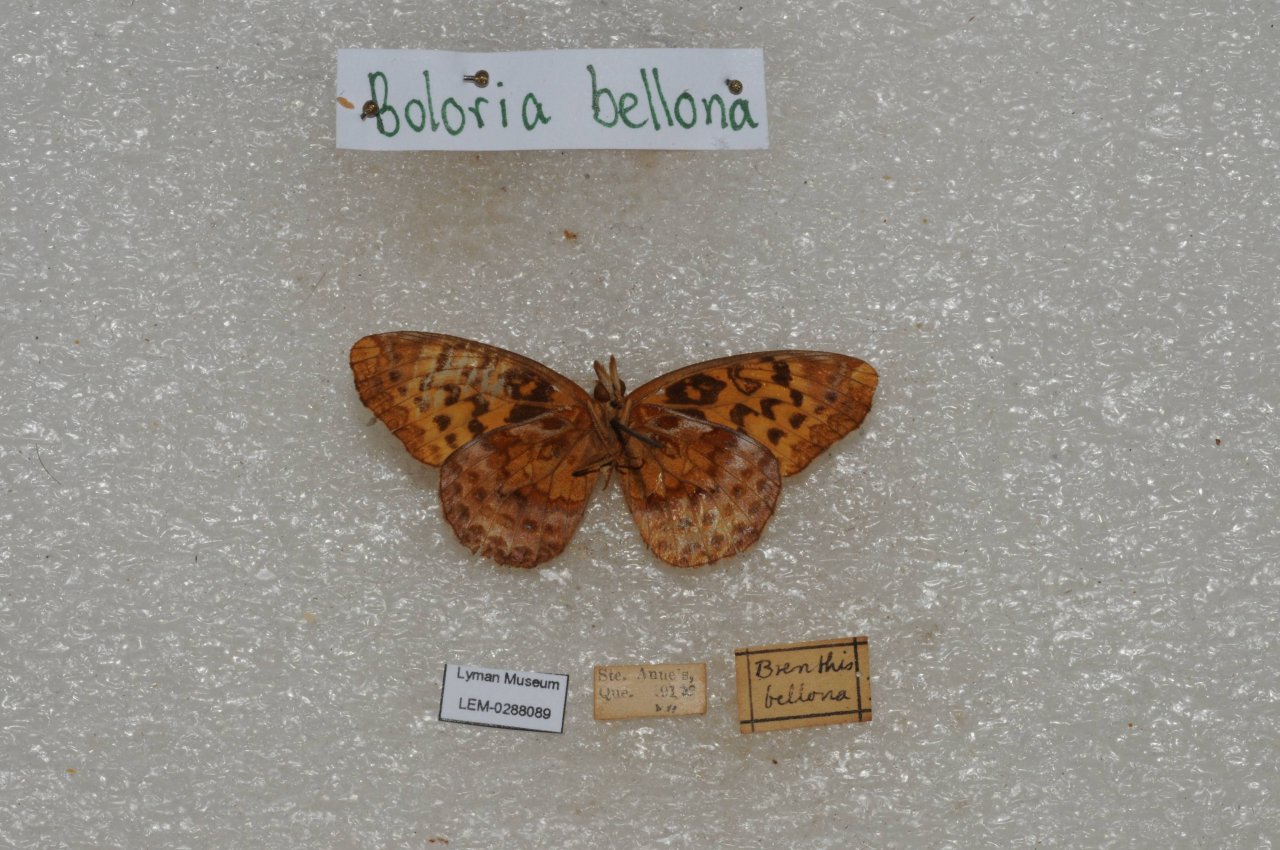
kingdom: Animalia
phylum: Arthropoda
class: Insecta
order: Lepidoptera
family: Nymphalidae
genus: Clossiana
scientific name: Clossiana toddi
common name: Meadow Fritillary
